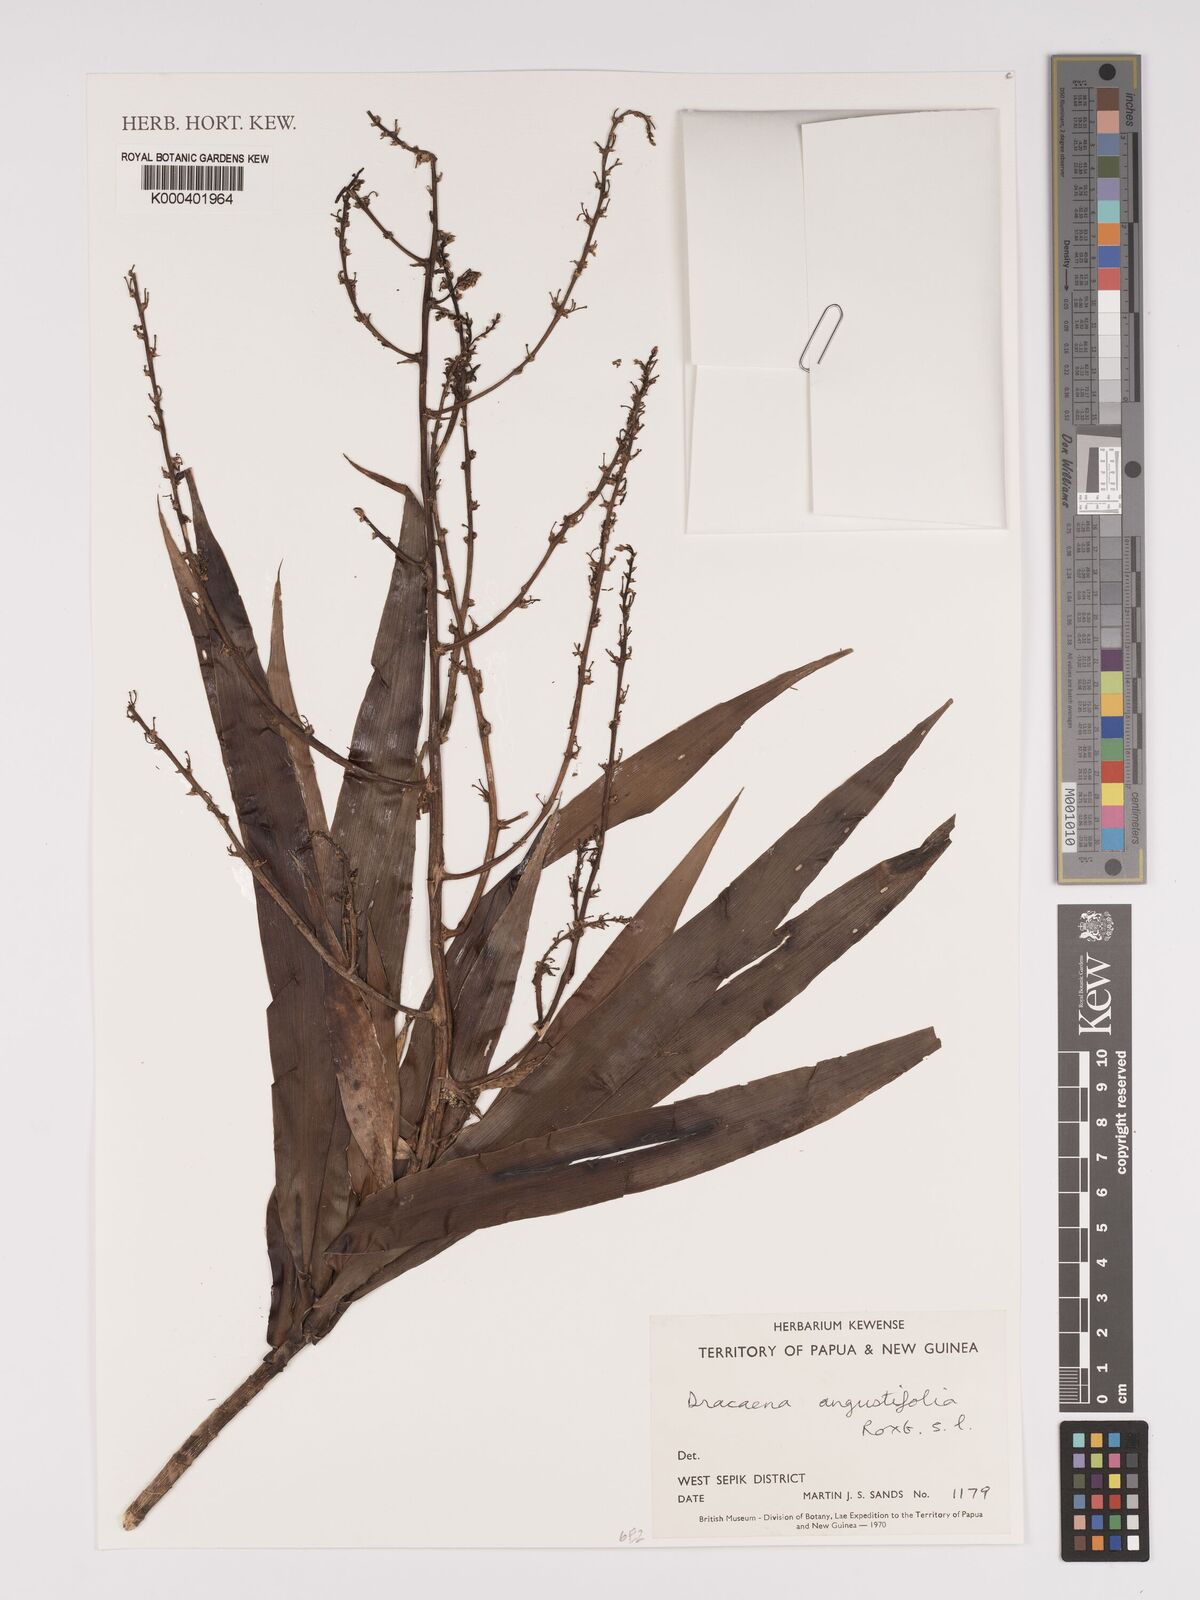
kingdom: Plantae
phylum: Tracheophyta
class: Liliopsida
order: Asparagales
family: Asparagaceae
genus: Dracaena
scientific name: Dracaena angustifolia
